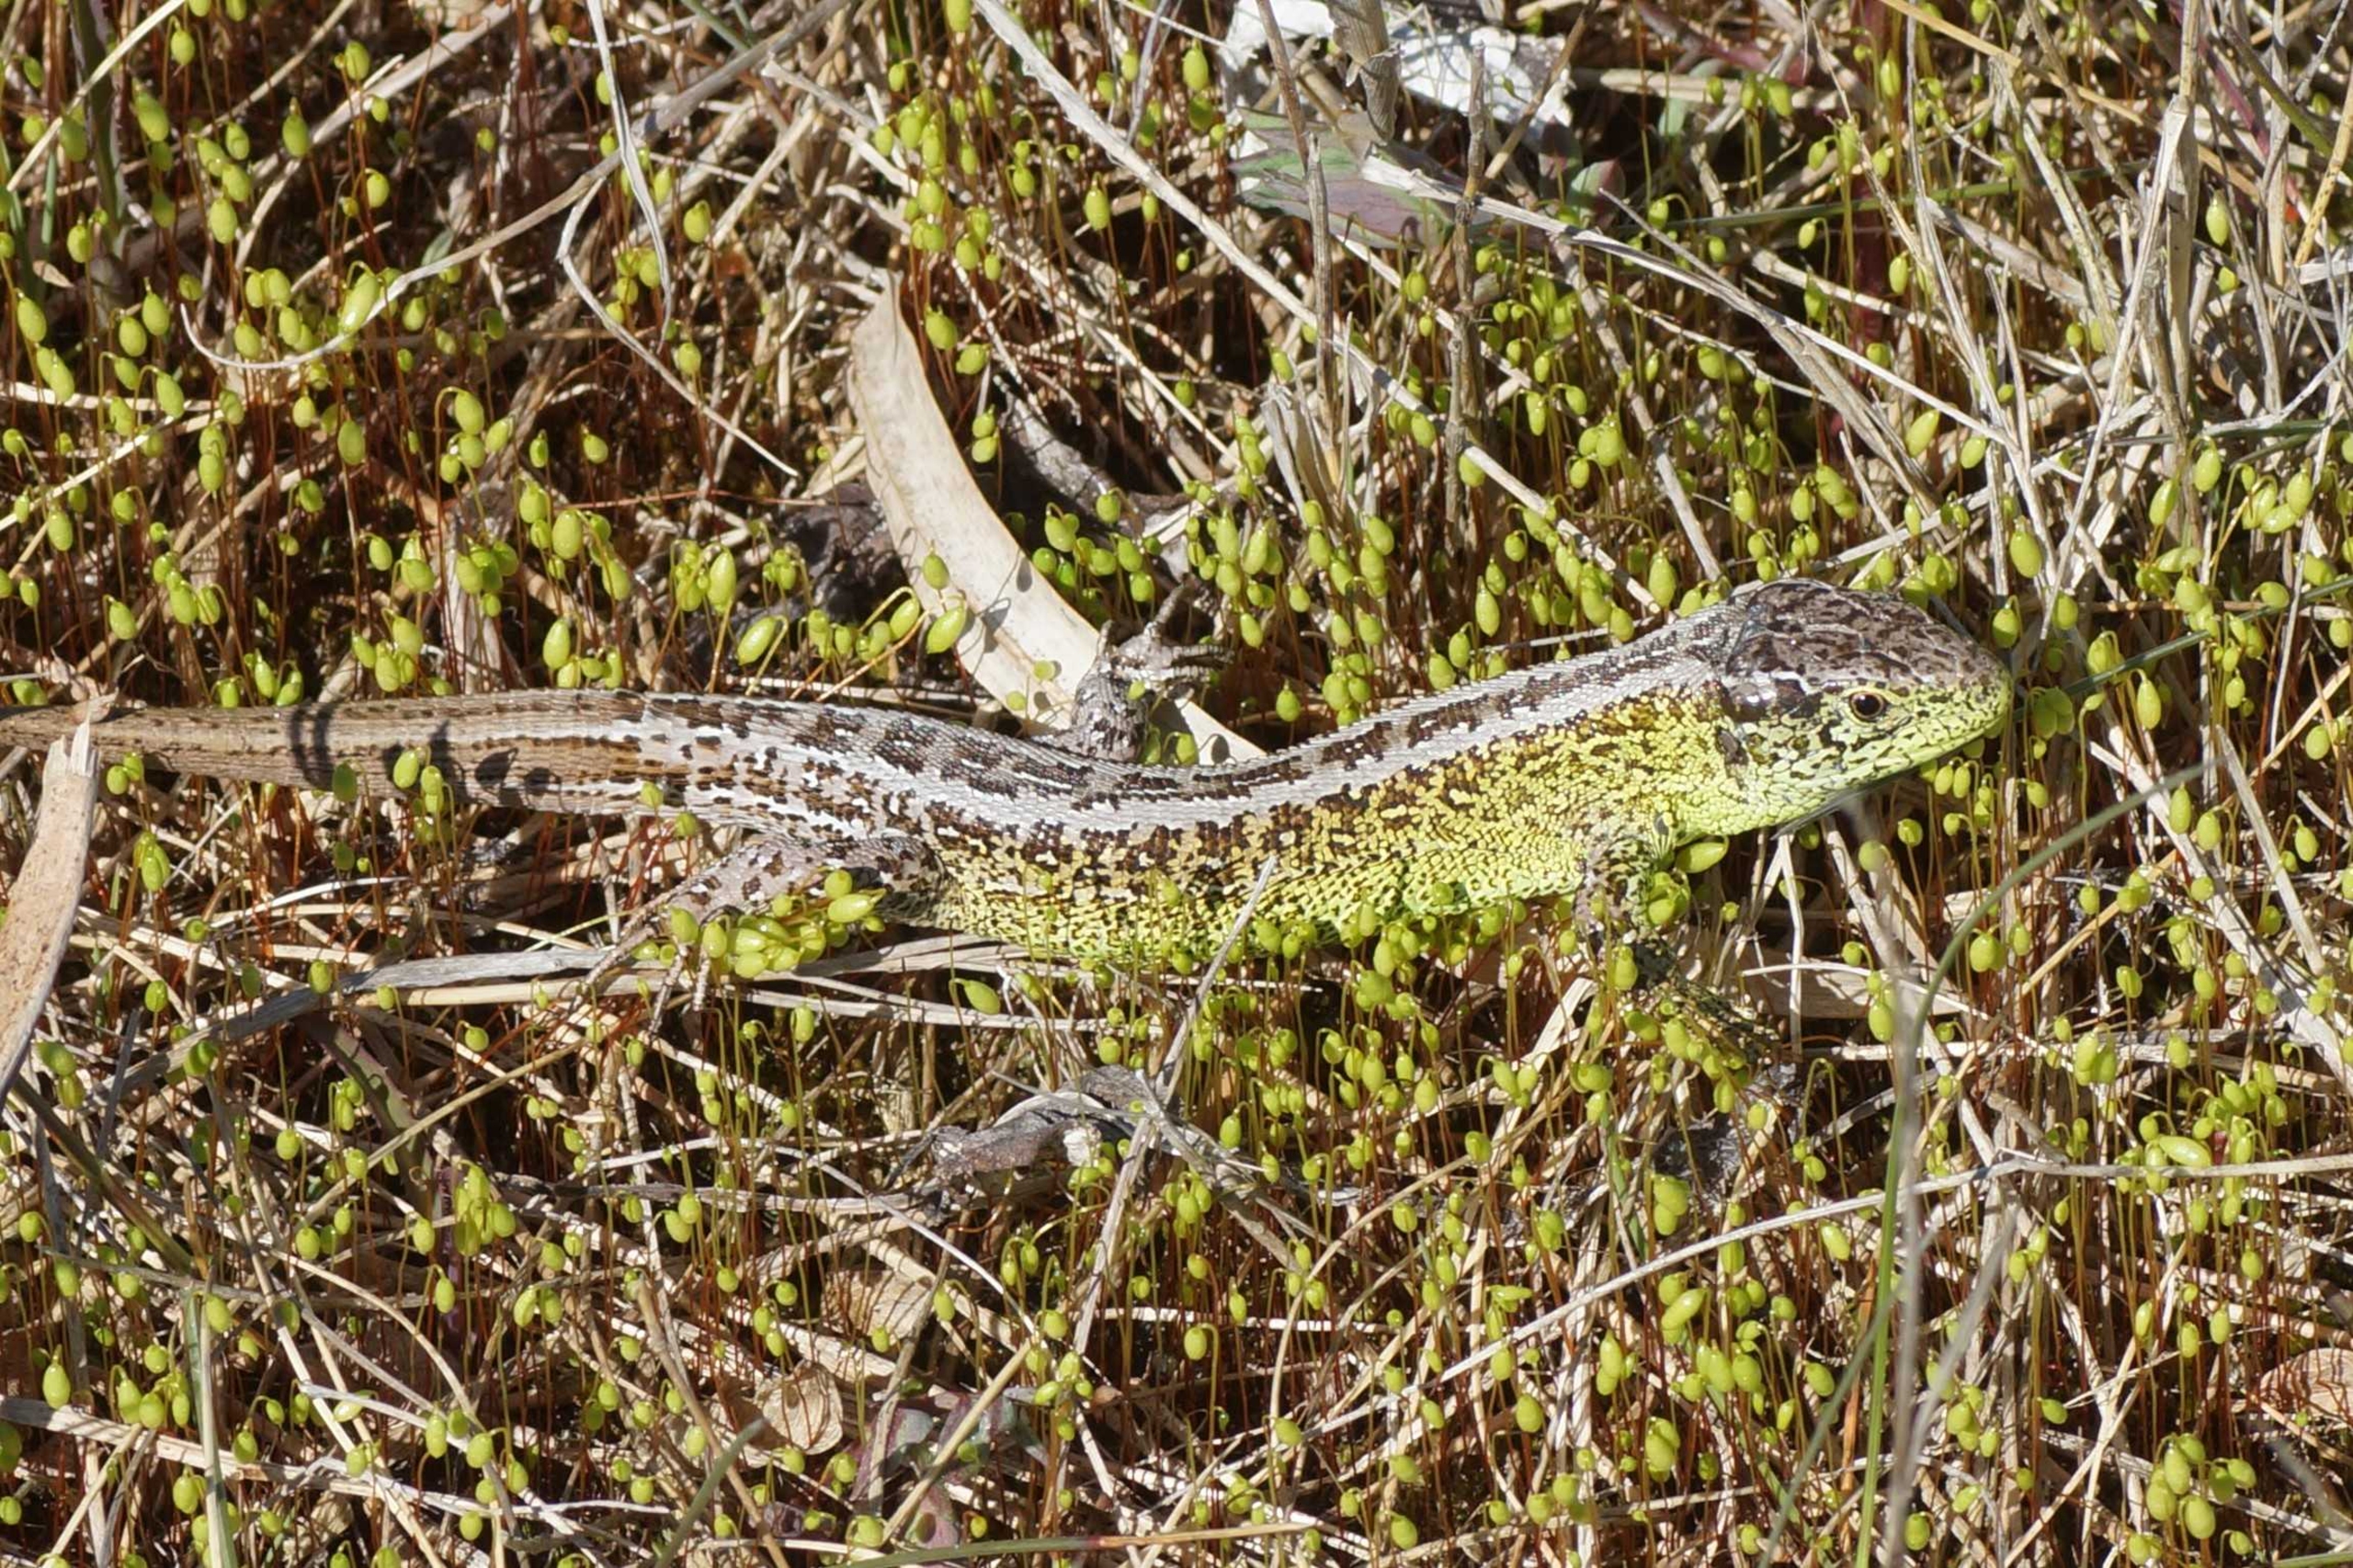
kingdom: Animalia
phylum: Chordata
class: Squamata
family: Lacertidae
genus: Lacerta
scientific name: Lacerta agilis
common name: Markfirben
